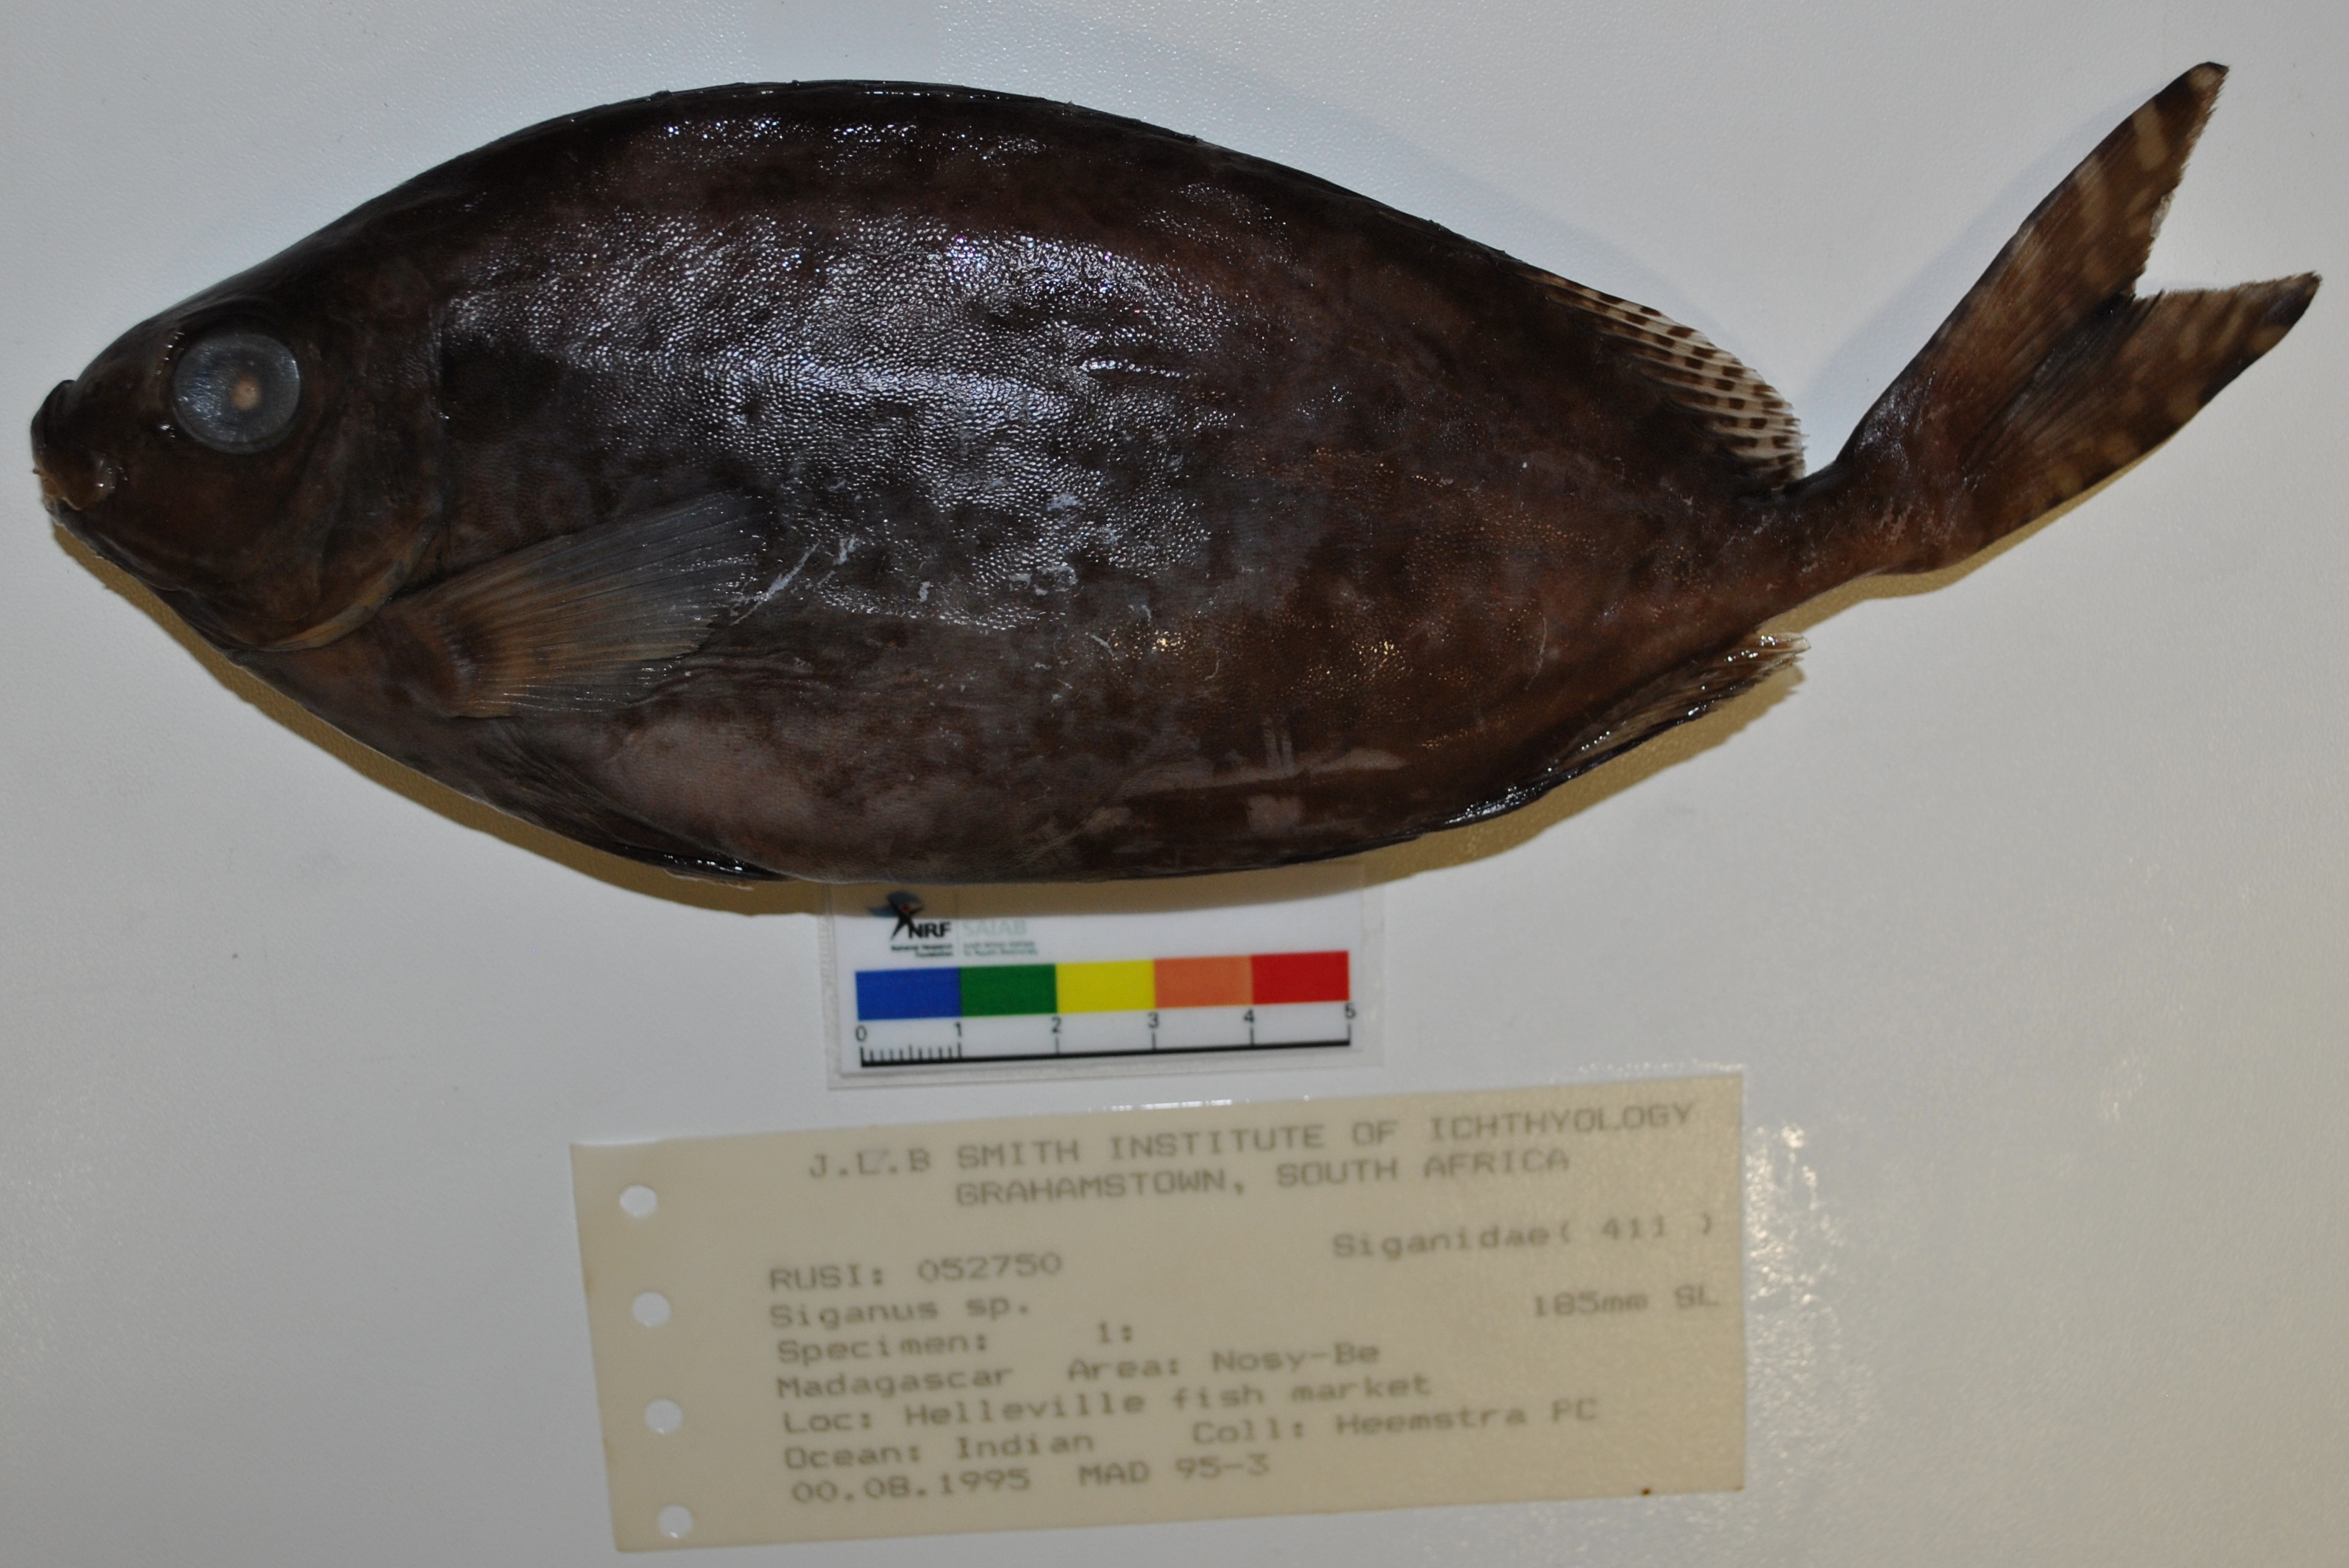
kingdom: Animalia
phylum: Chordata
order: Perciformes
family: Siganidae
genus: Siganus
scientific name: Siganus
